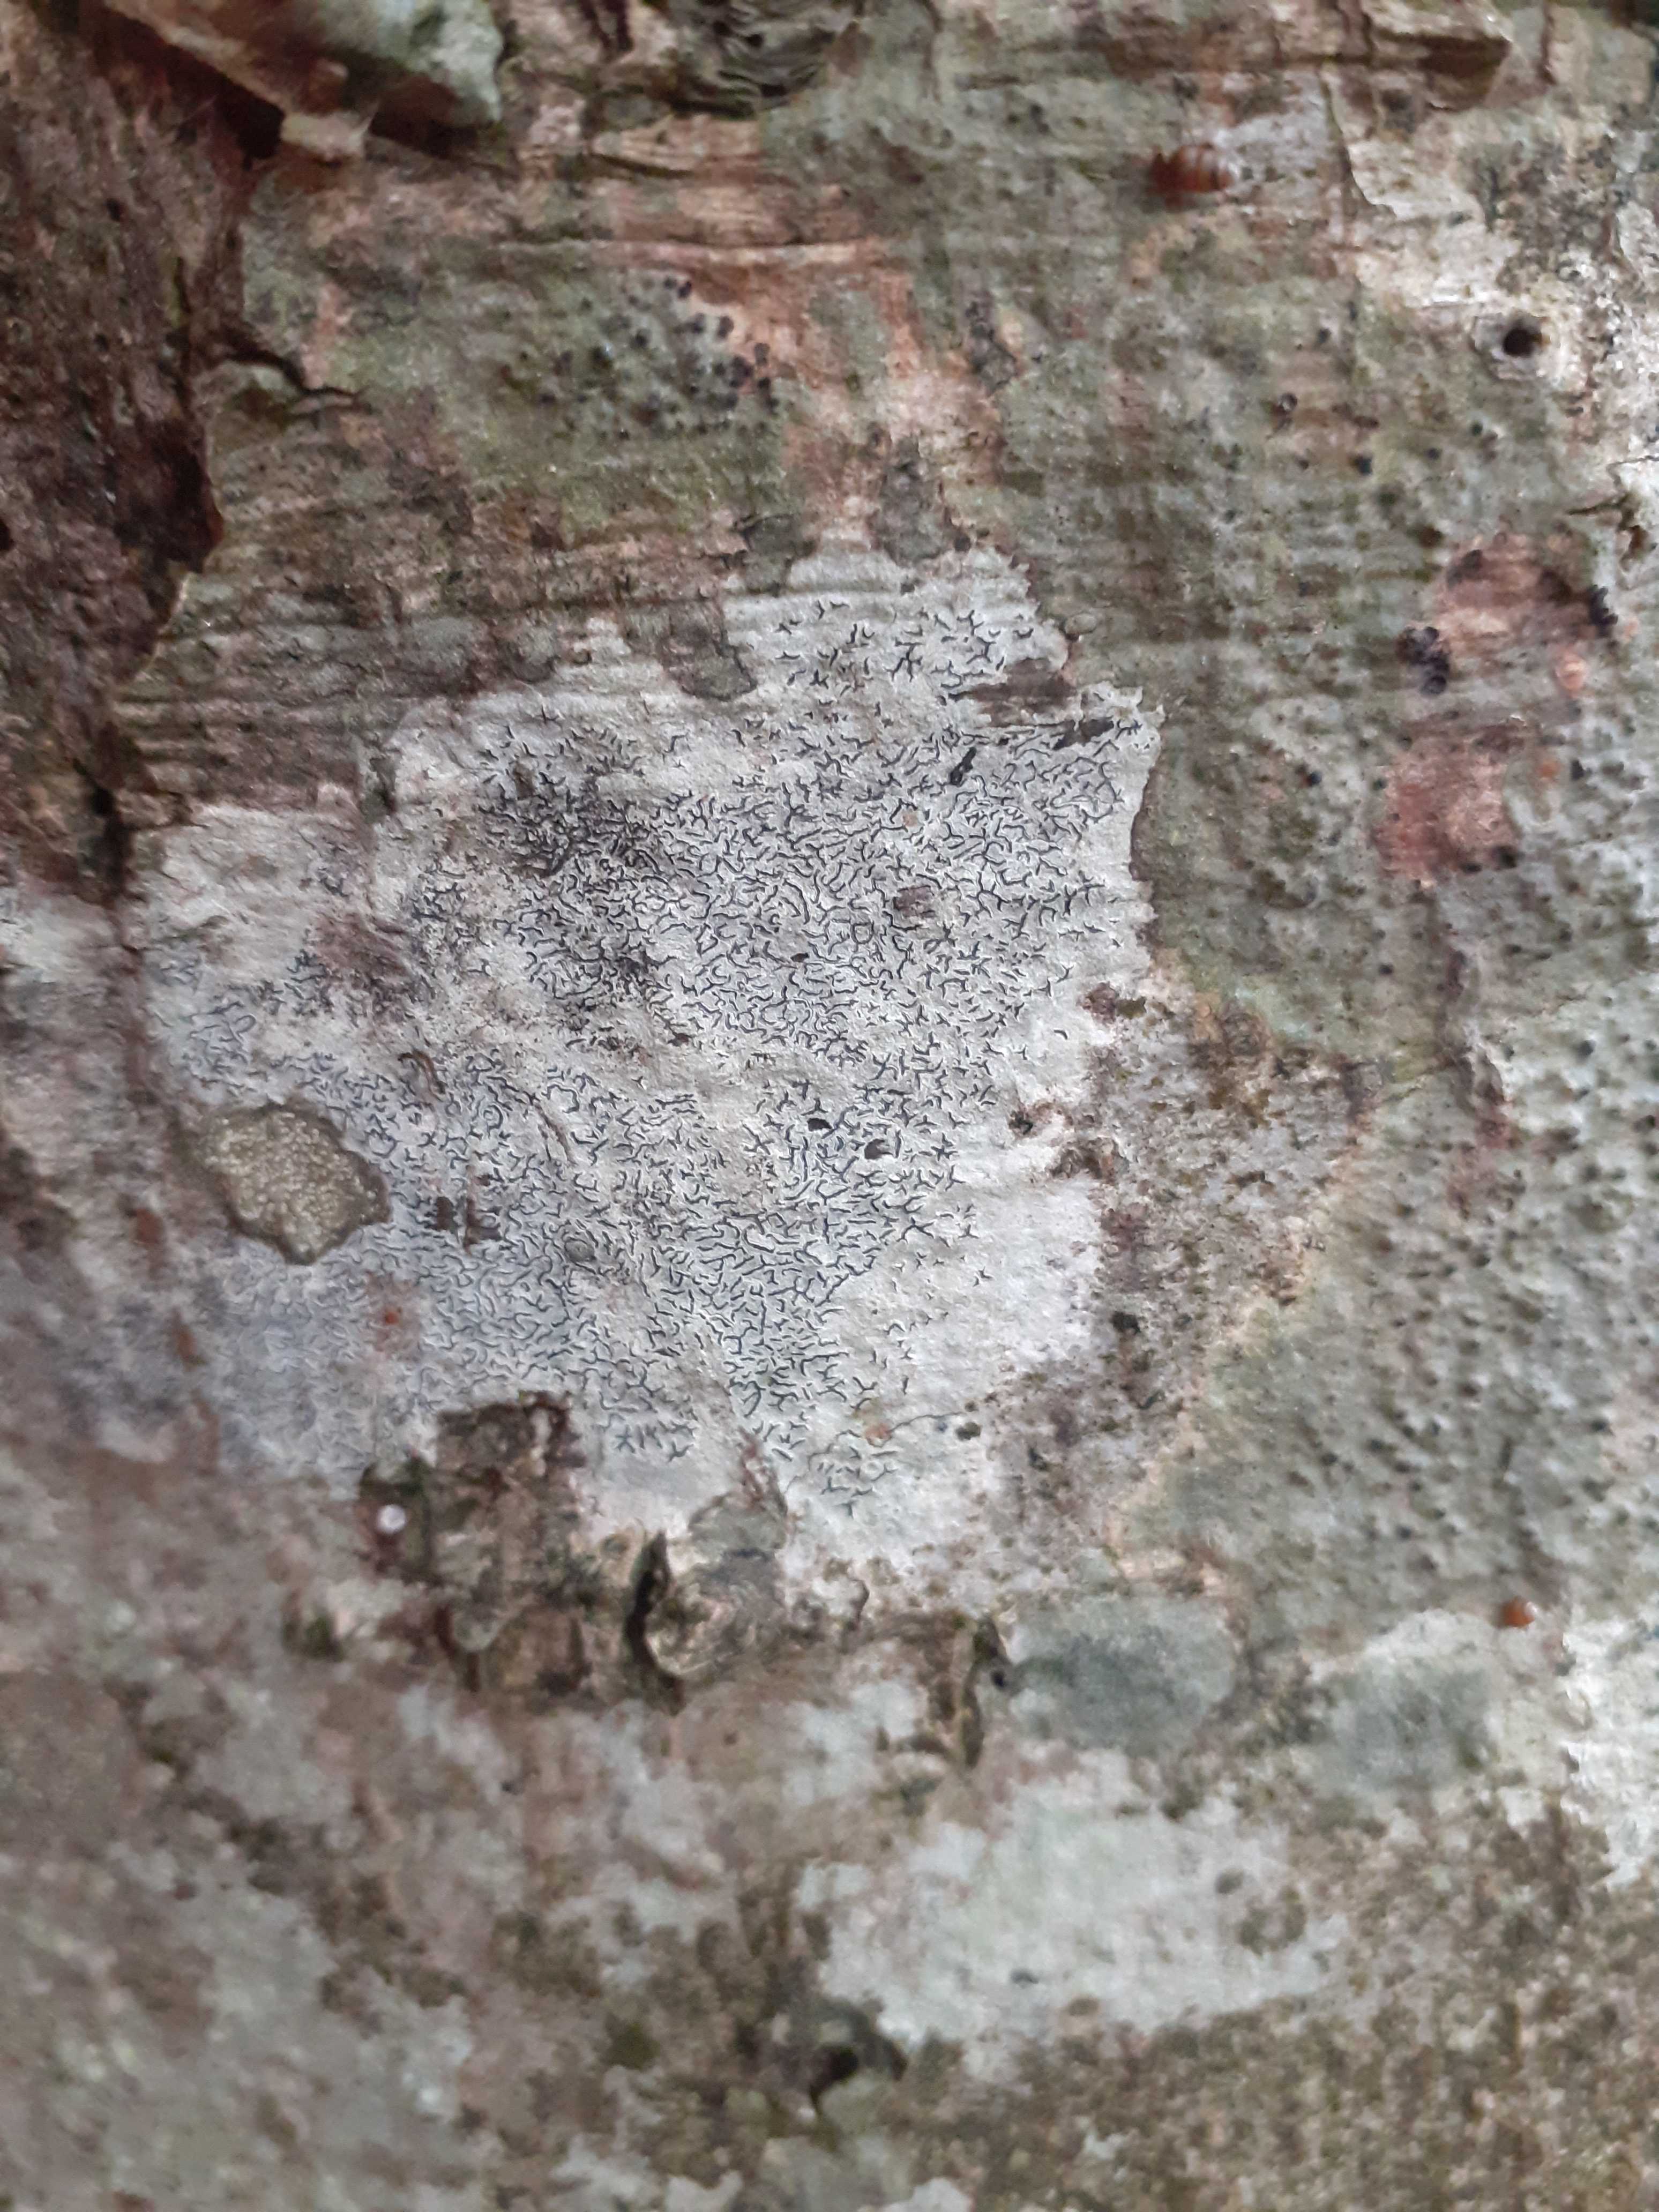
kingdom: Fungi
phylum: Ascomycota
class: Lecanoromycetes
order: Ostropales
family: Graphidaceae
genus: Graphis
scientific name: Graphis scripta
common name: almindelig skriftlav
